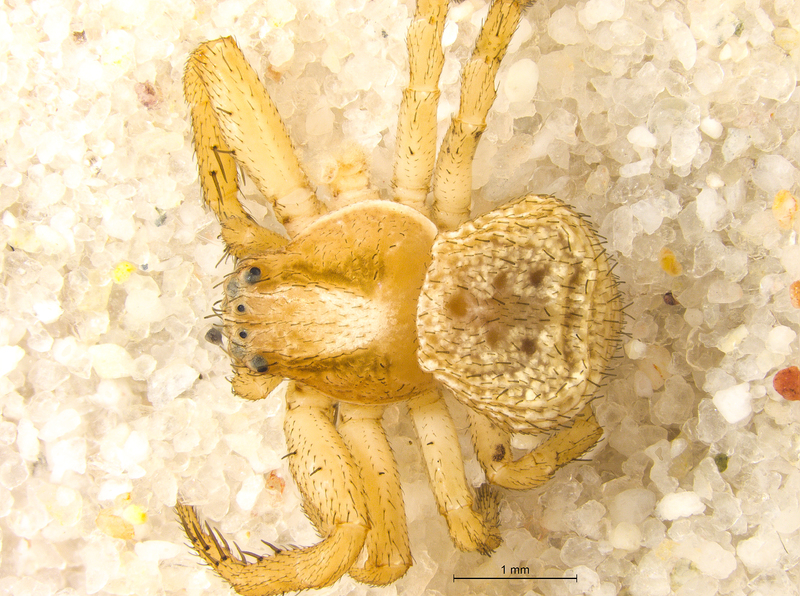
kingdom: Animalia
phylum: Arthropoda
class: Arachnida
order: Araneae
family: Thomisidae
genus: Ozyptila
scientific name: Ozyptila simplex
